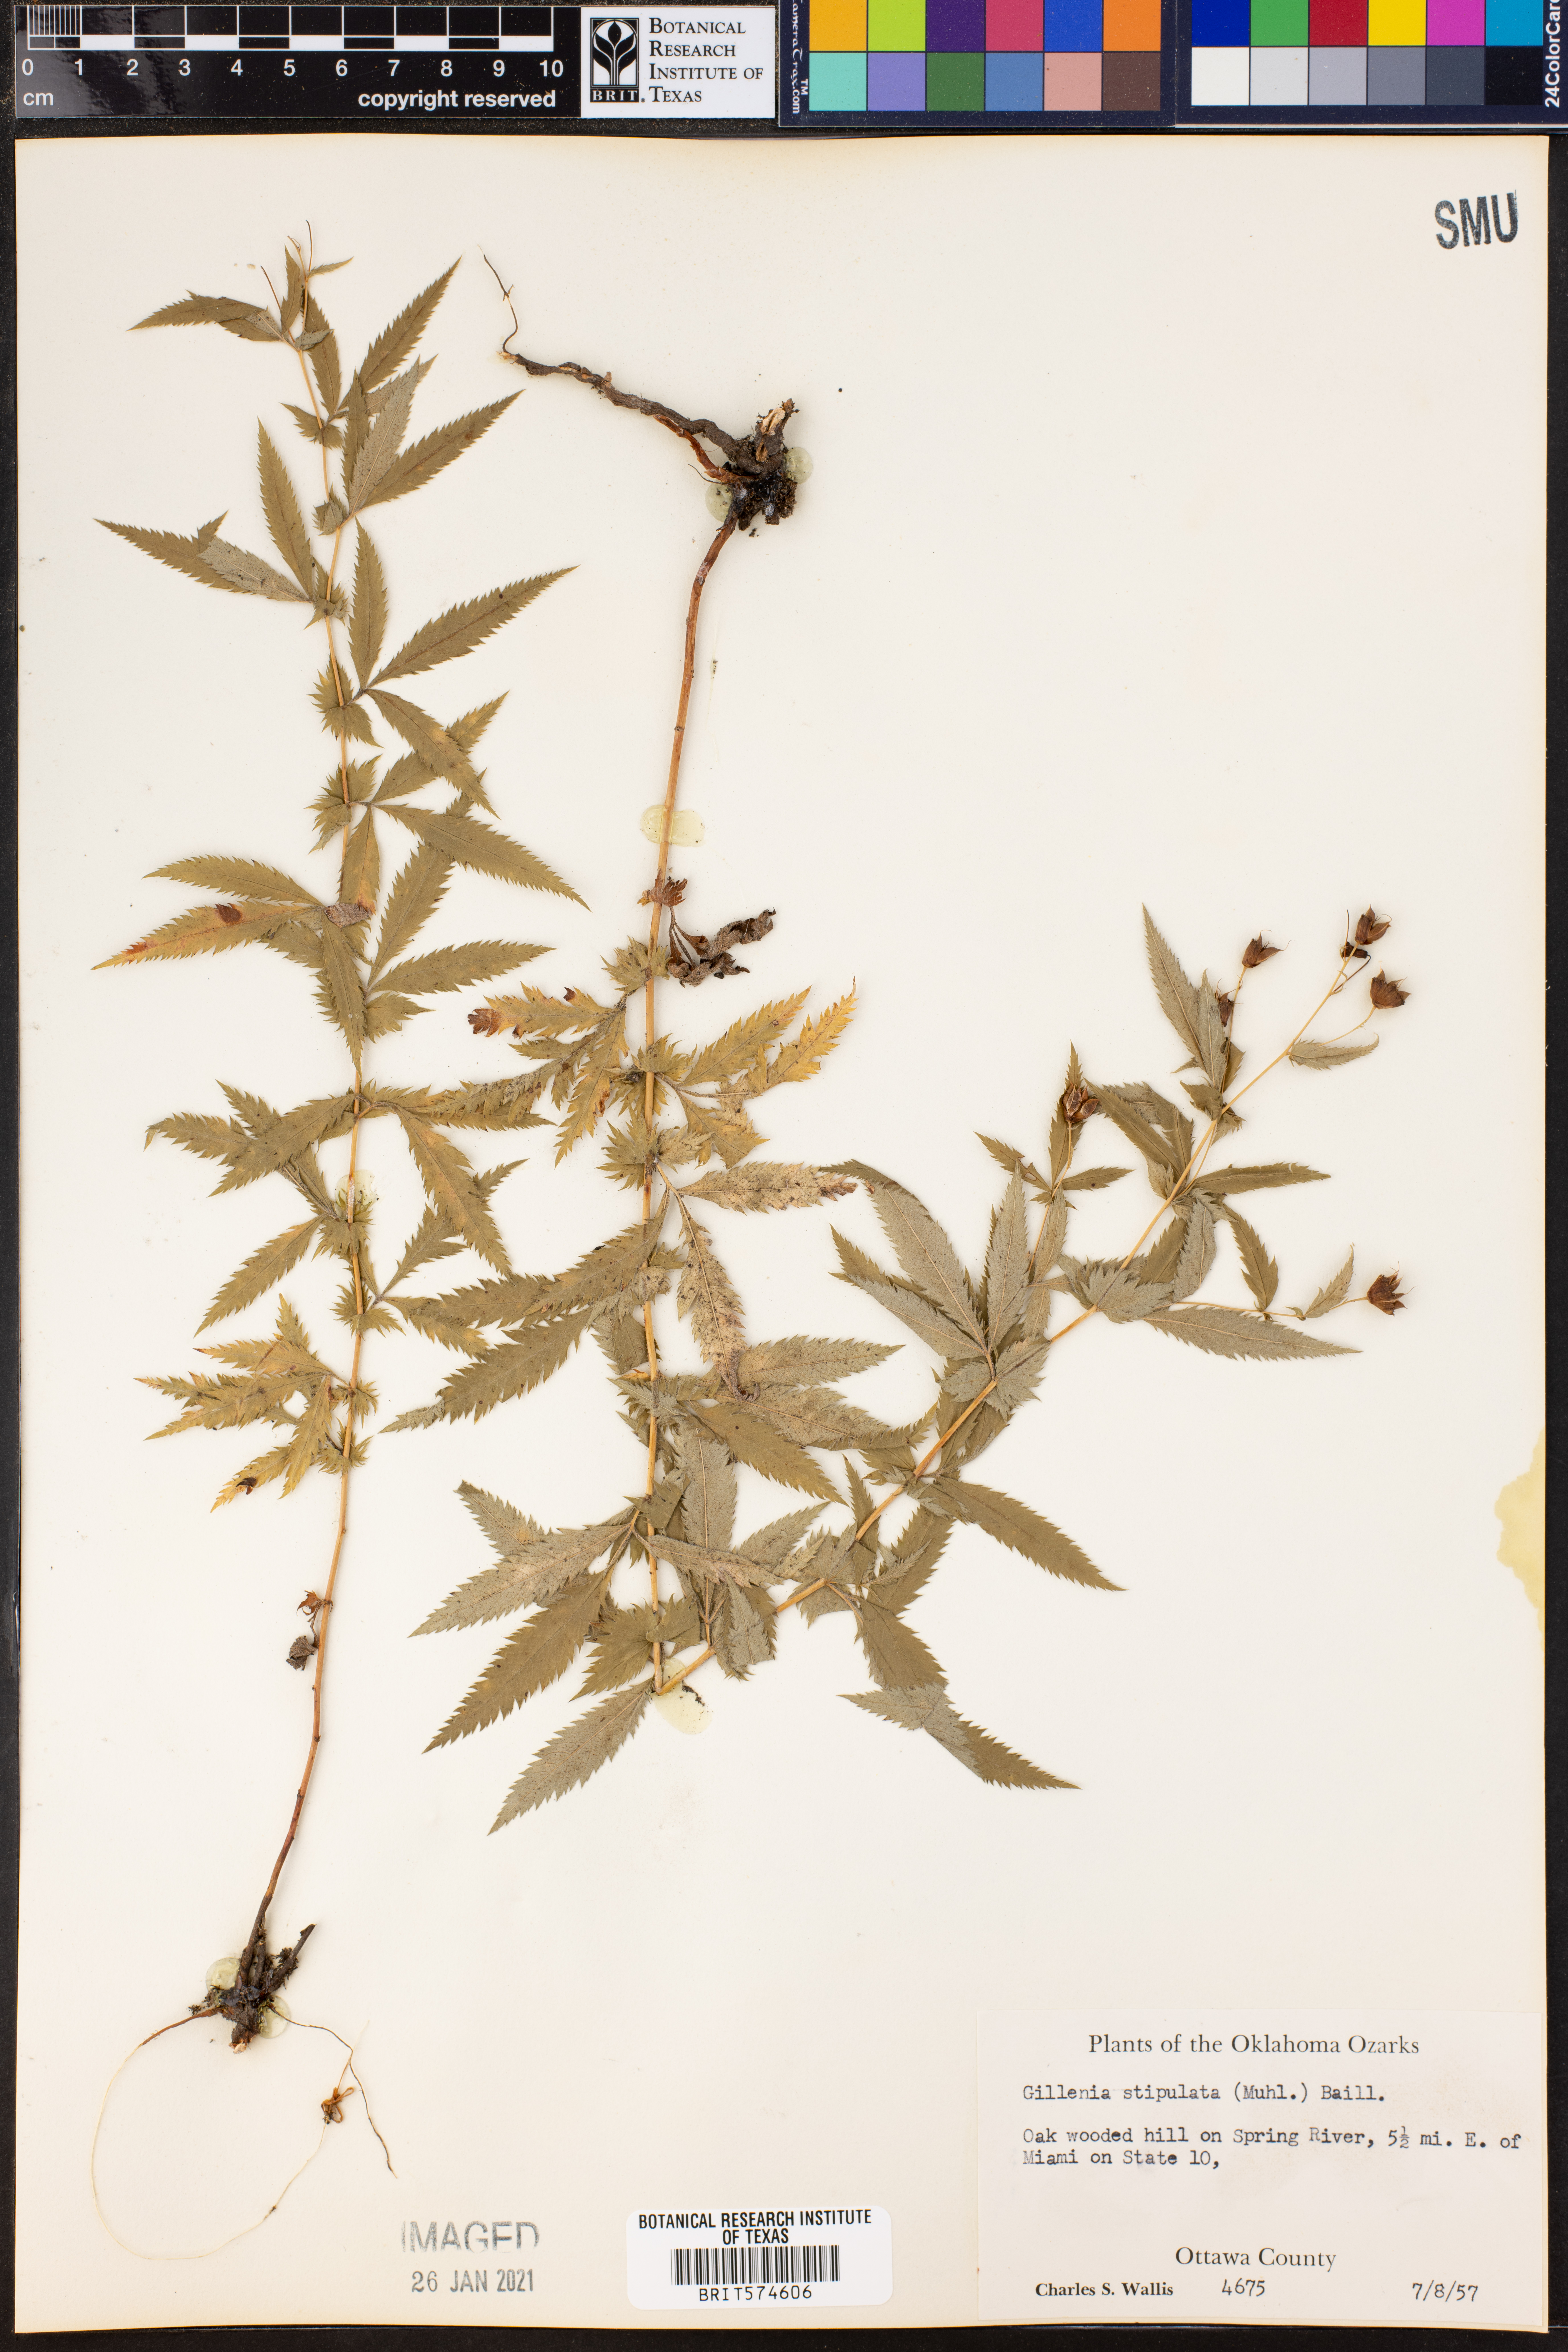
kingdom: Plantae
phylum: Tracheophyta
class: Magnoliopsida
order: Rosales
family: Rosaceae
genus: Gillenia
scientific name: Gillenia stipulata
